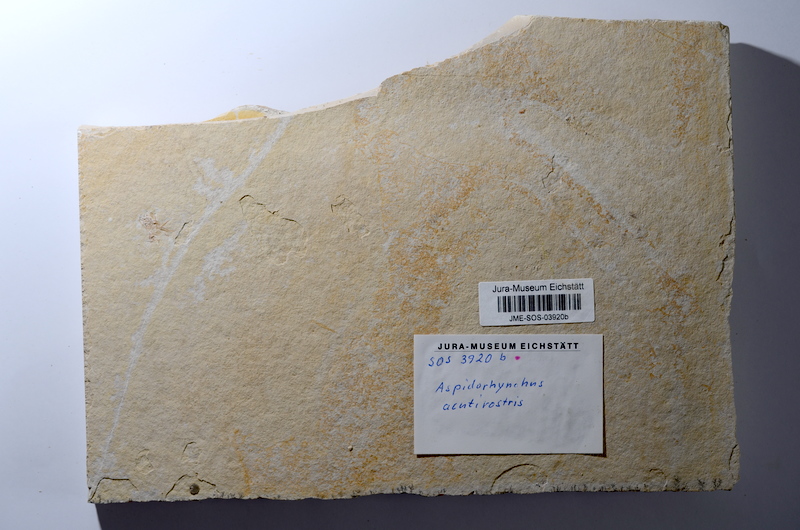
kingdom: Animalia
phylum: Chordata
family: Aspidorhynchidae
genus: Aspidorhynchus
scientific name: Aspidorhynchus acutirostris
